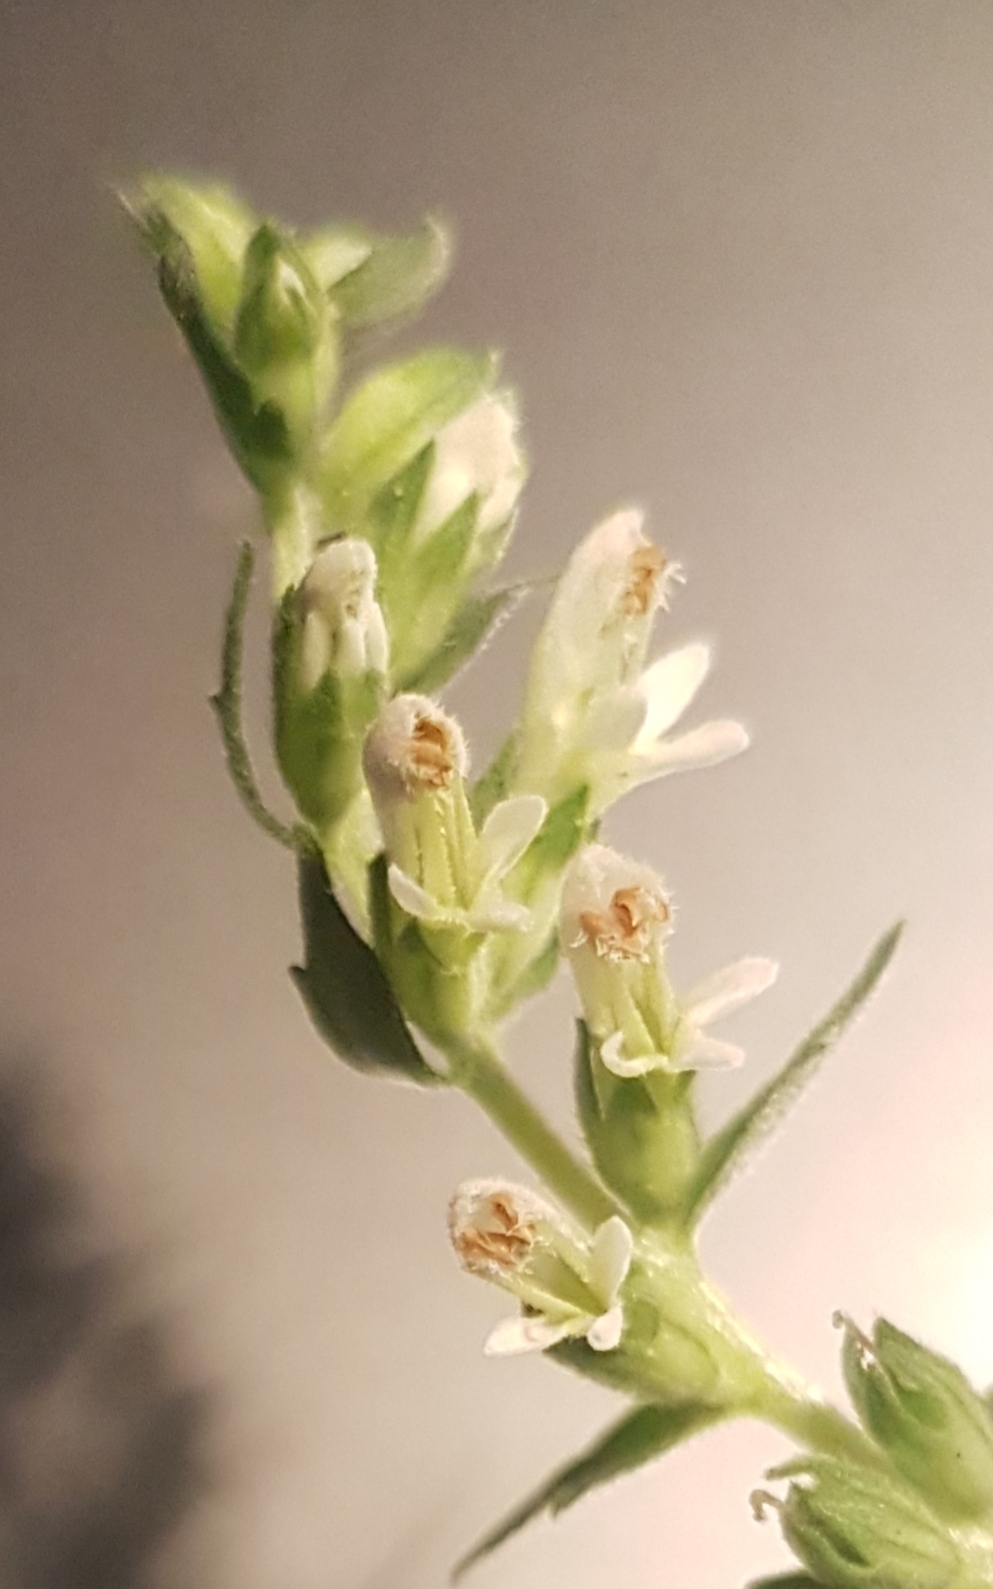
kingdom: Plantae
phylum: Tracheophyta
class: Magnoliopsida
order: Lamiales
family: Orobanchaceae
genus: Odontites
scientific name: Odontites
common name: Rødtopslægten
